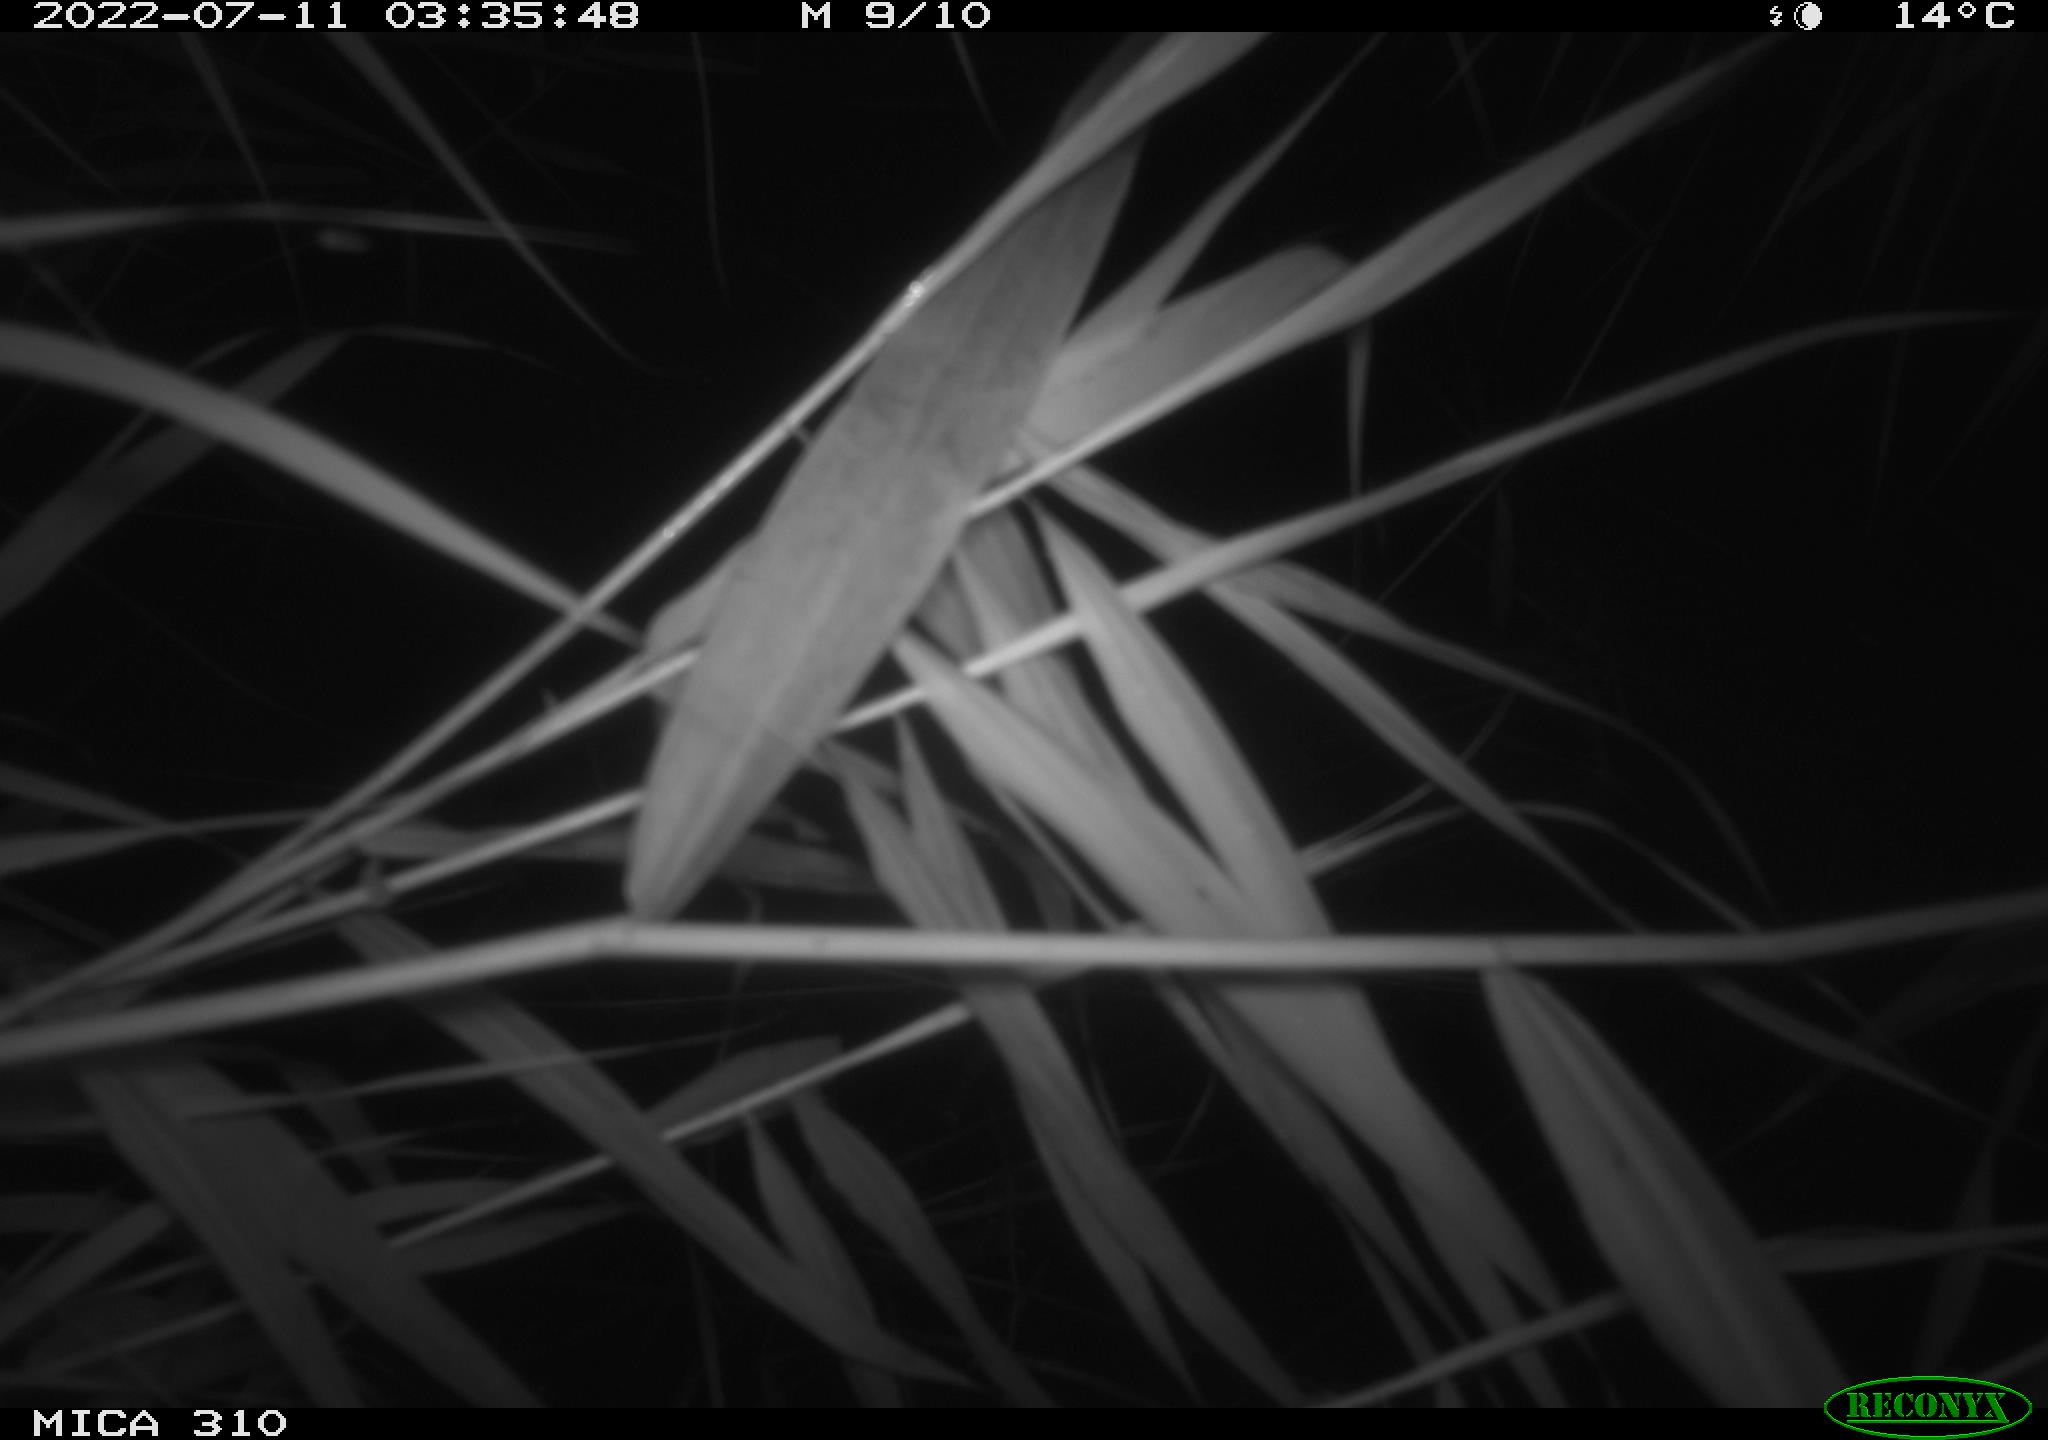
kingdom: Animalia
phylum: Chordata
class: Aves
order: Anseriformes
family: Anatidae
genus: Anas
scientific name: Anas platyrhynchos
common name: Mallard
